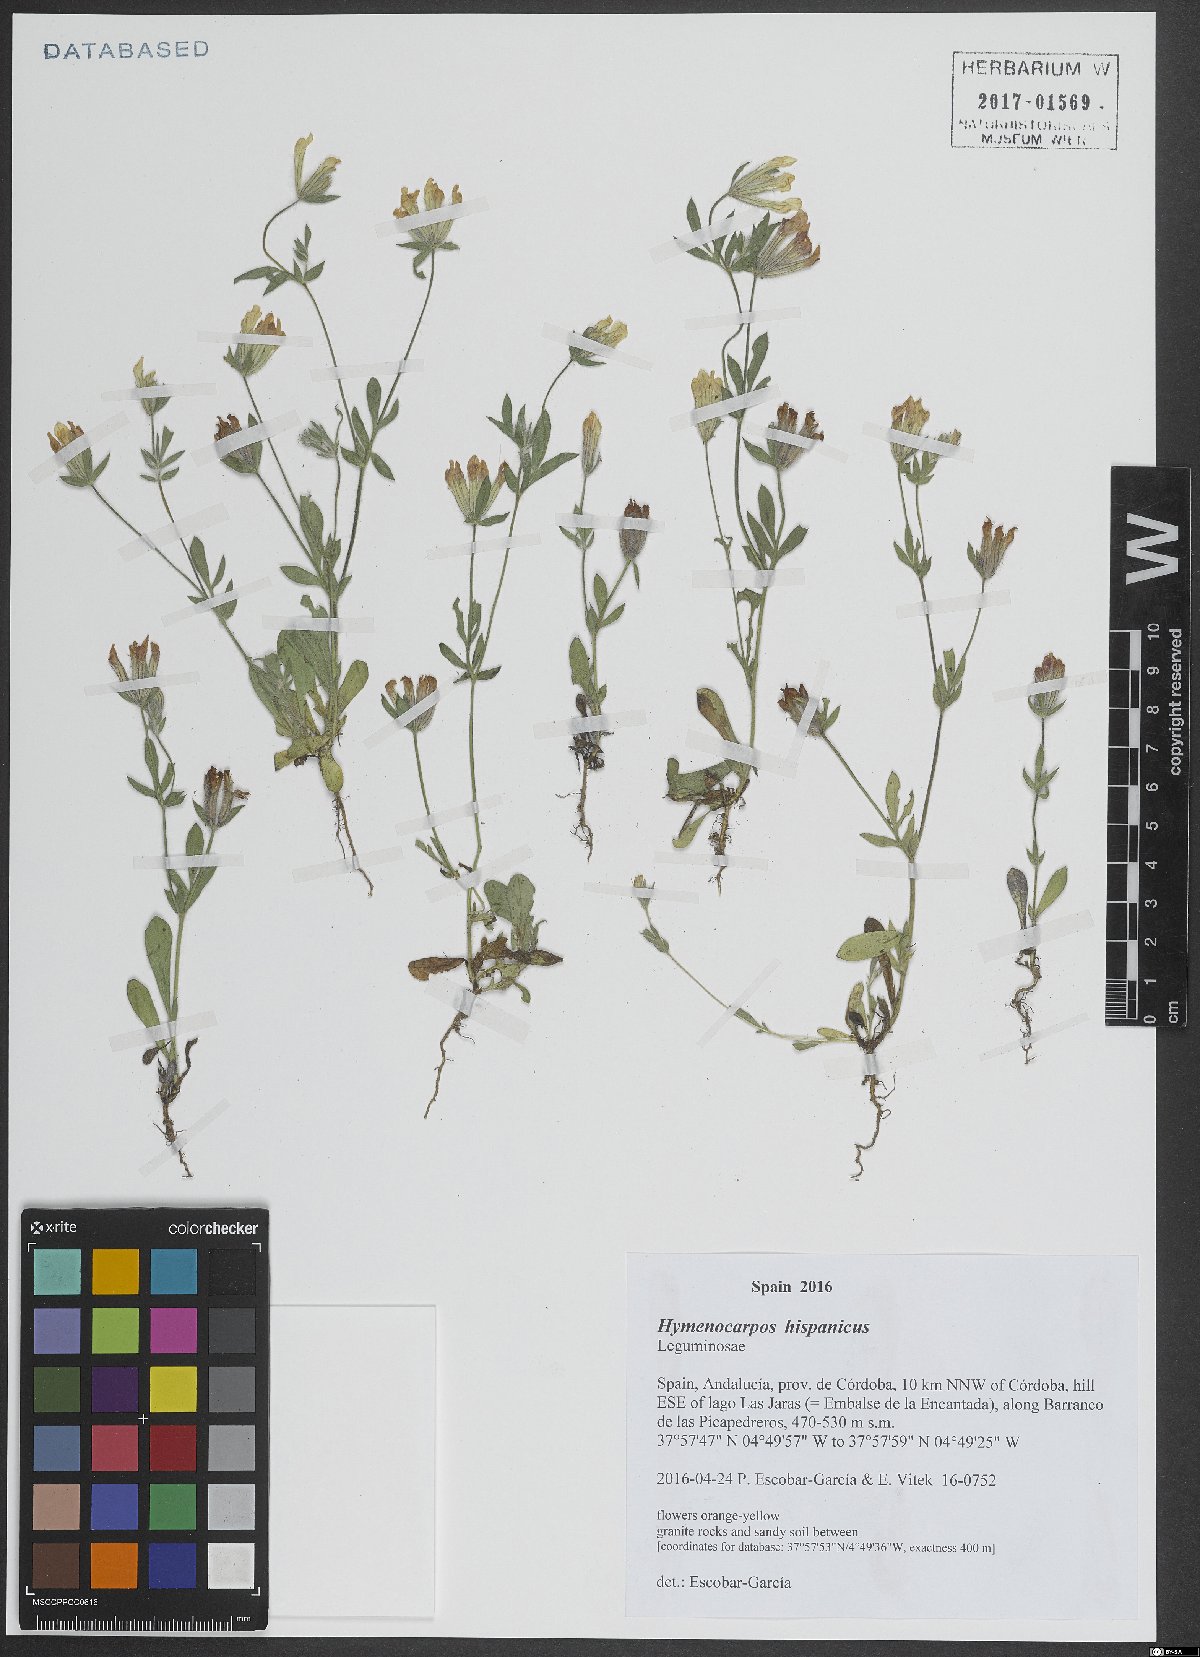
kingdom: Plantae
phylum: Tracheophyta
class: Magnoliopsida
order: Fabales
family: Fabaceae
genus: Anthyllis
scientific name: Anthyllis lotoides
